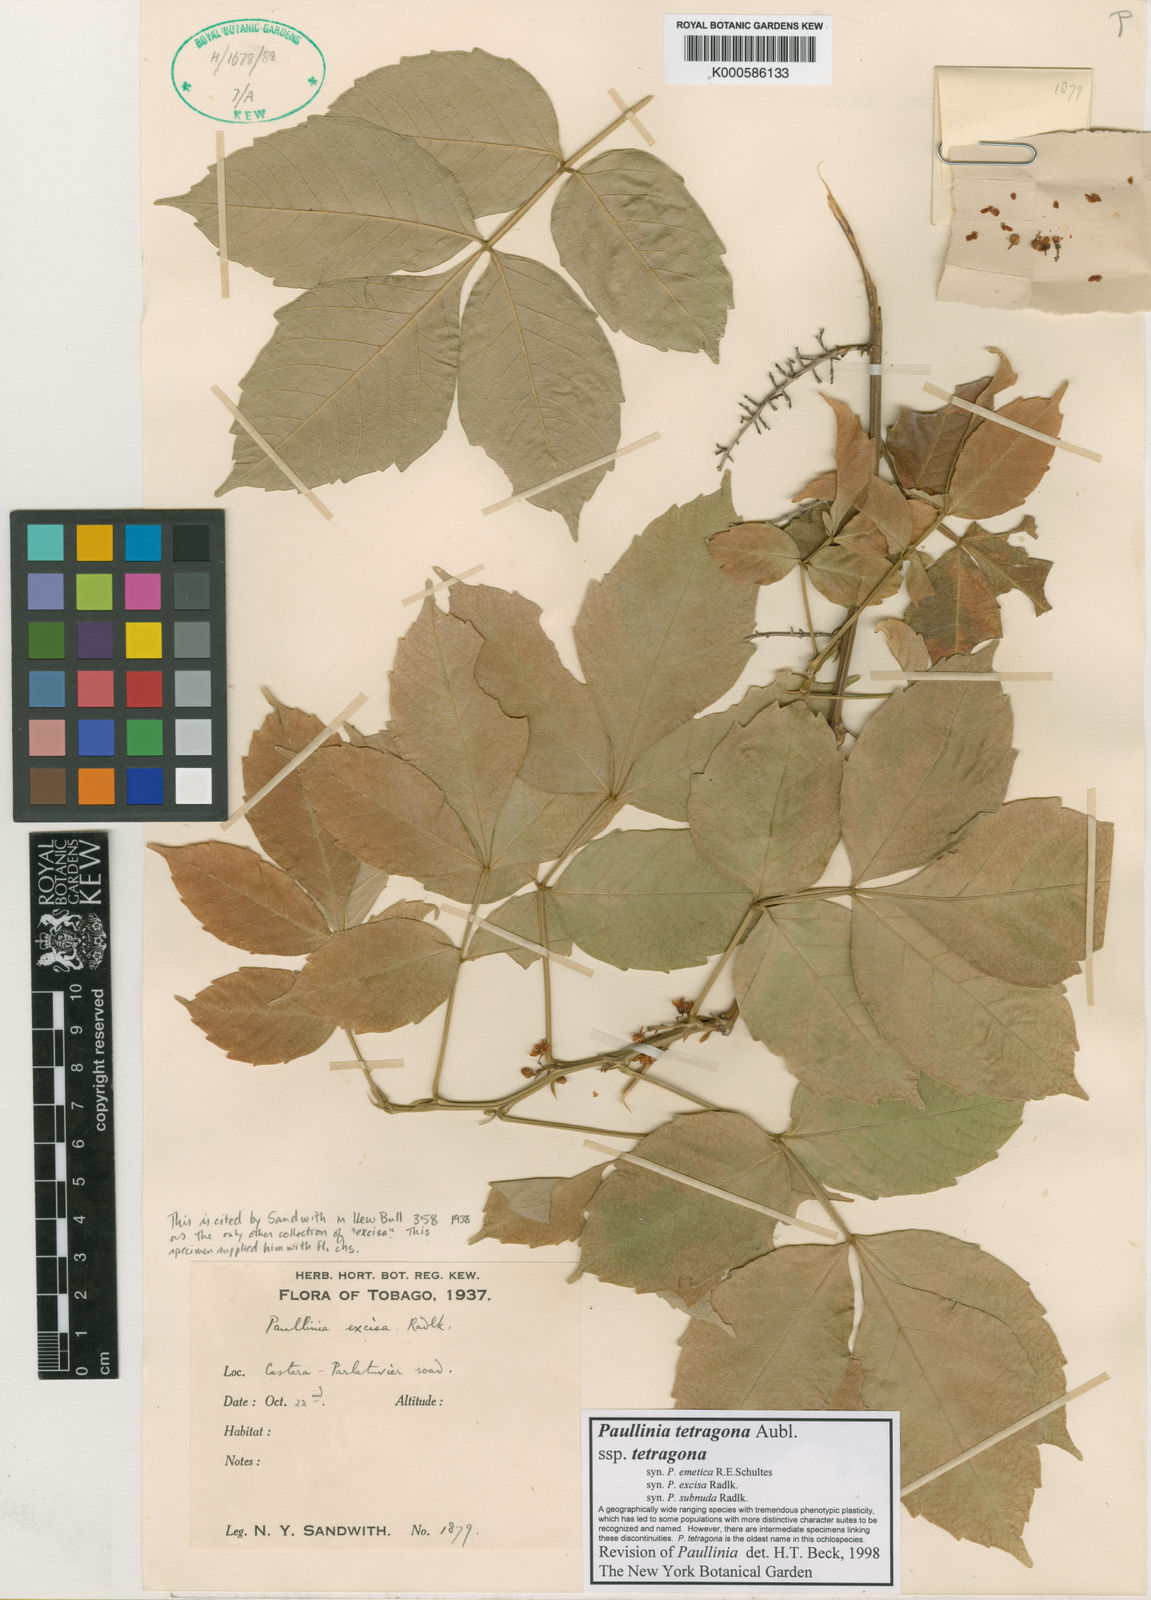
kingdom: Plantae
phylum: Tracheophyta
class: Magnoliopsida
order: Sapindales
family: Sapindaceae
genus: Paullinia
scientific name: Paullinia pterocarpa
